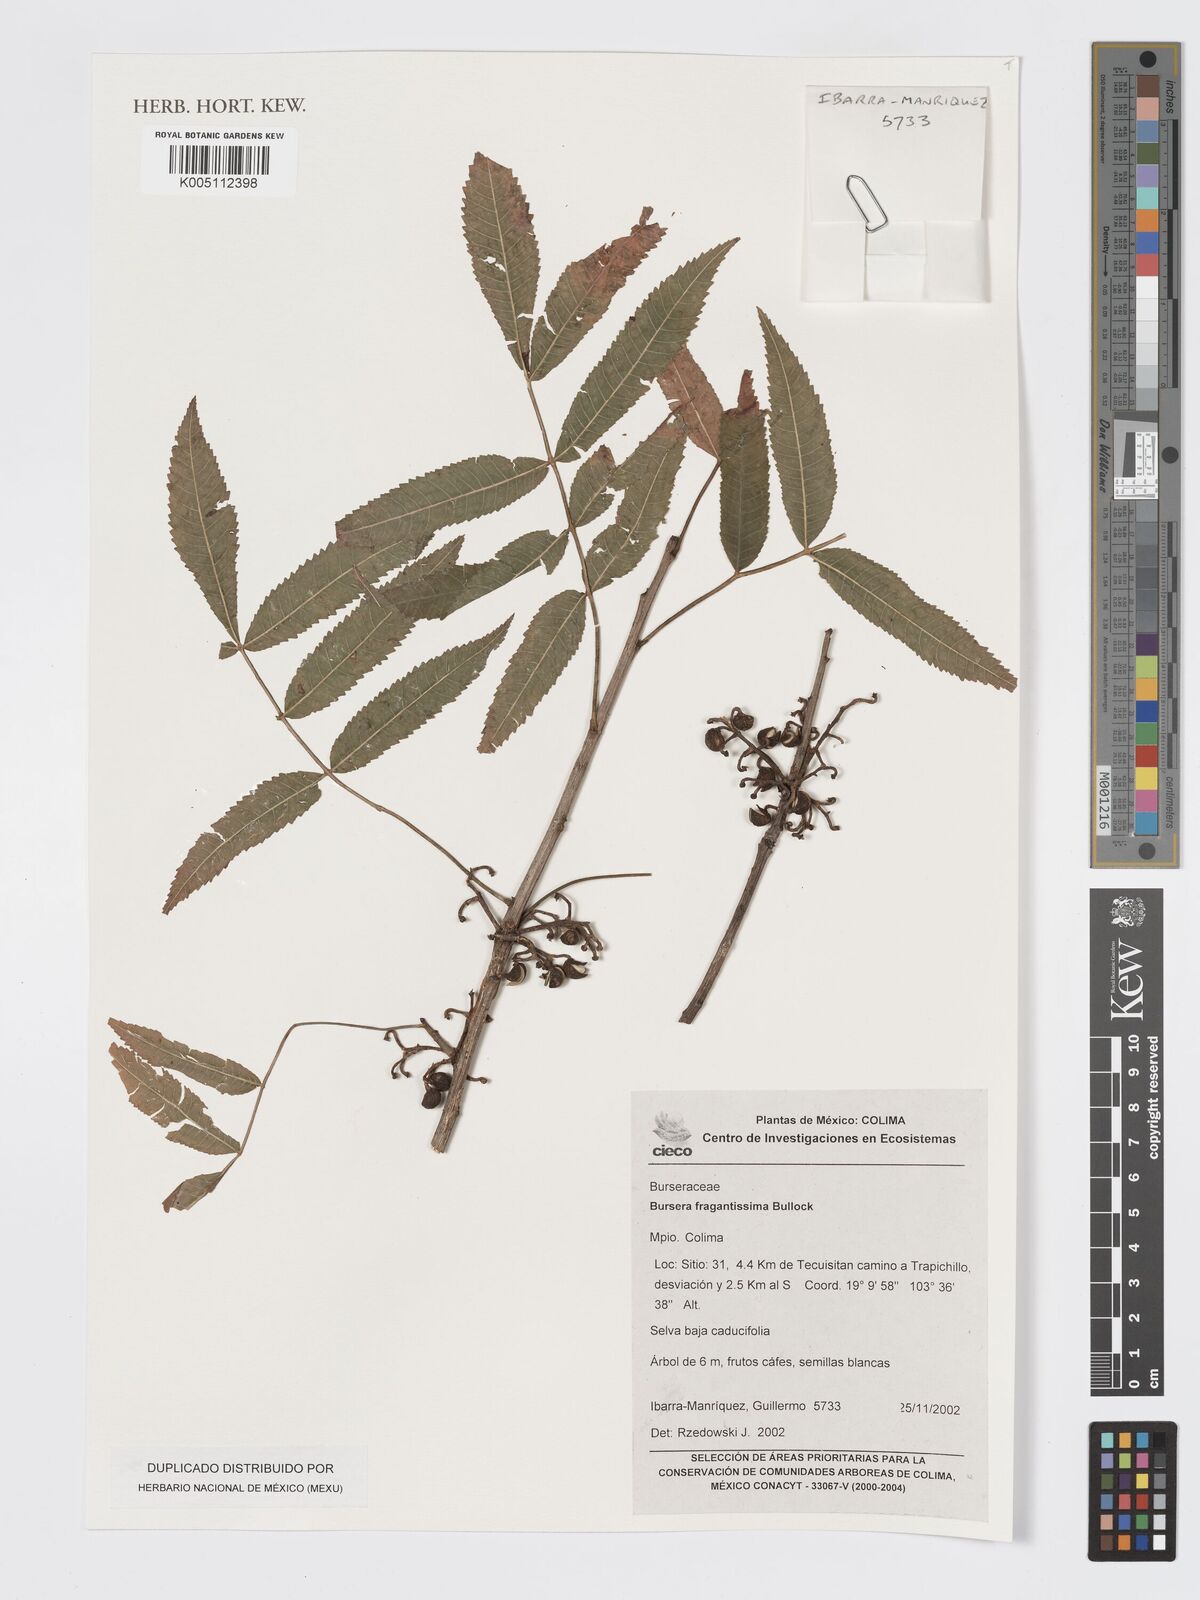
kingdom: Plantae
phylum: Tracheophyta
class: Magnoliopsida
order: Sapindales
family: Burseraceae
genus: Bursera
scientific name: Bursera fragrantissima
